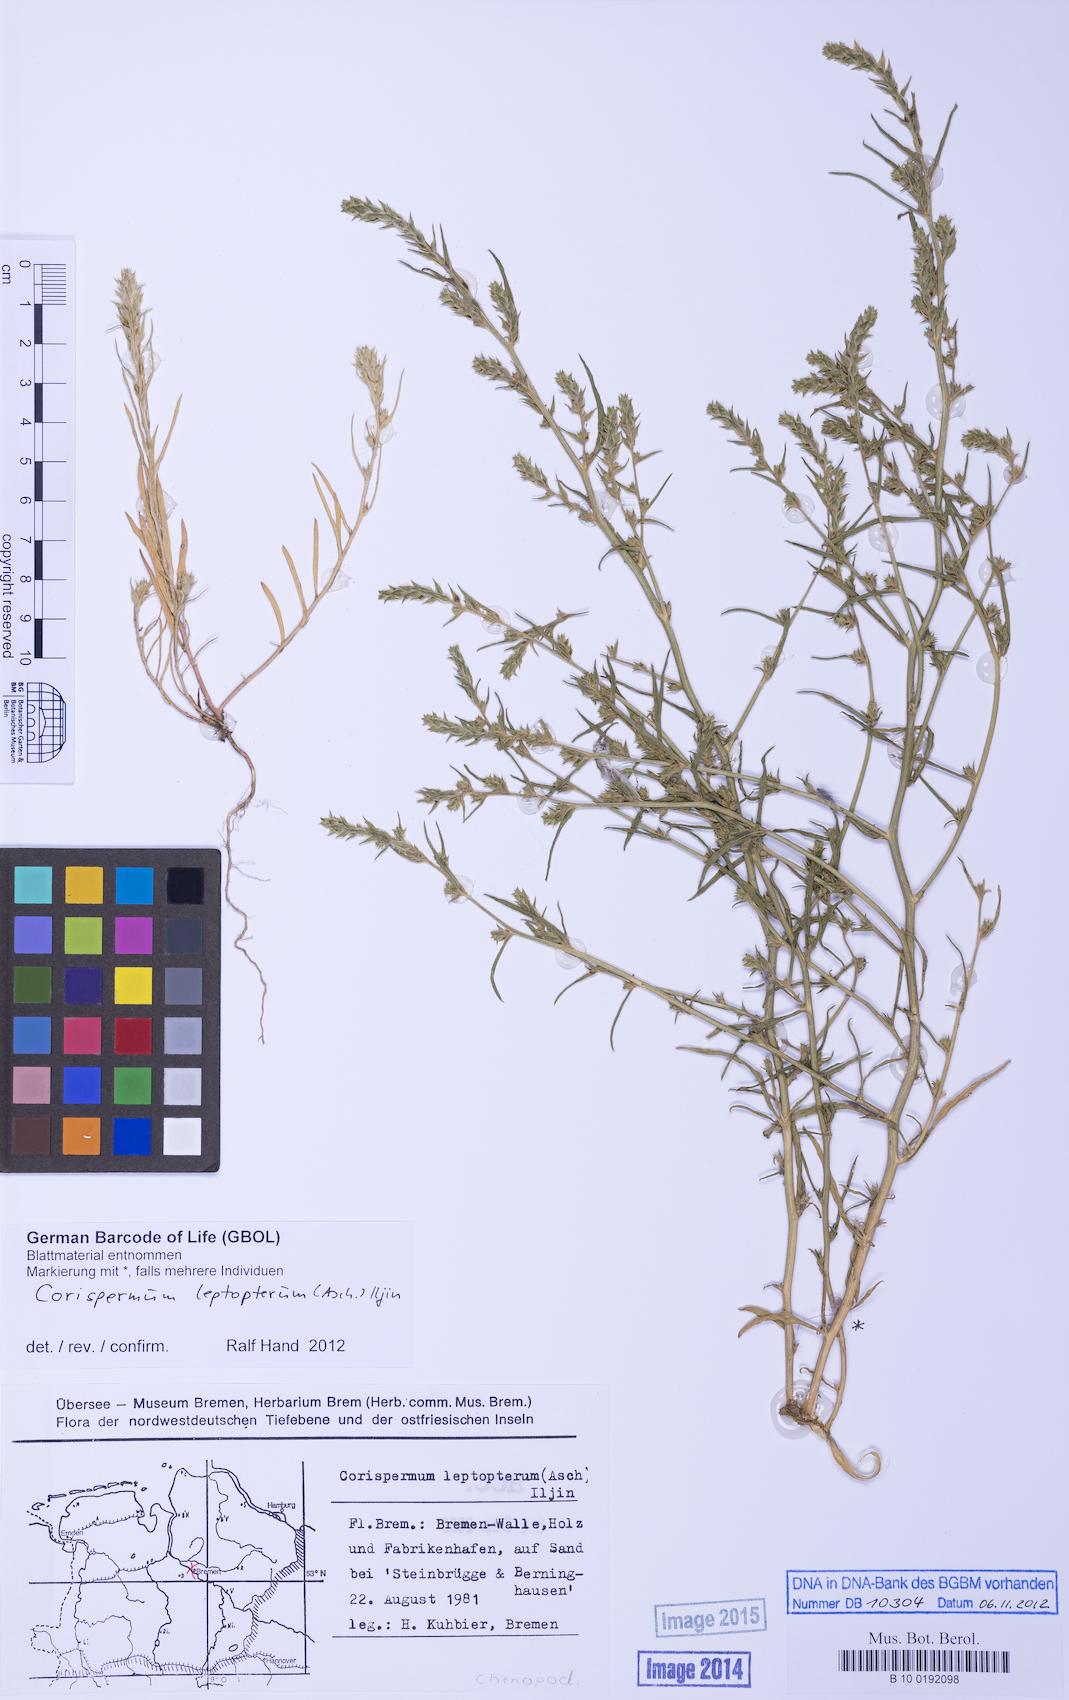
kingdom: Plantae
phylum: Tracheophyta
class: Magnoliopsida
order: Caryophyllales
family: Amaranthaceae
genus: Corispermum
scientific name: Corispermum pallasii
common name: Siberian bugseed
